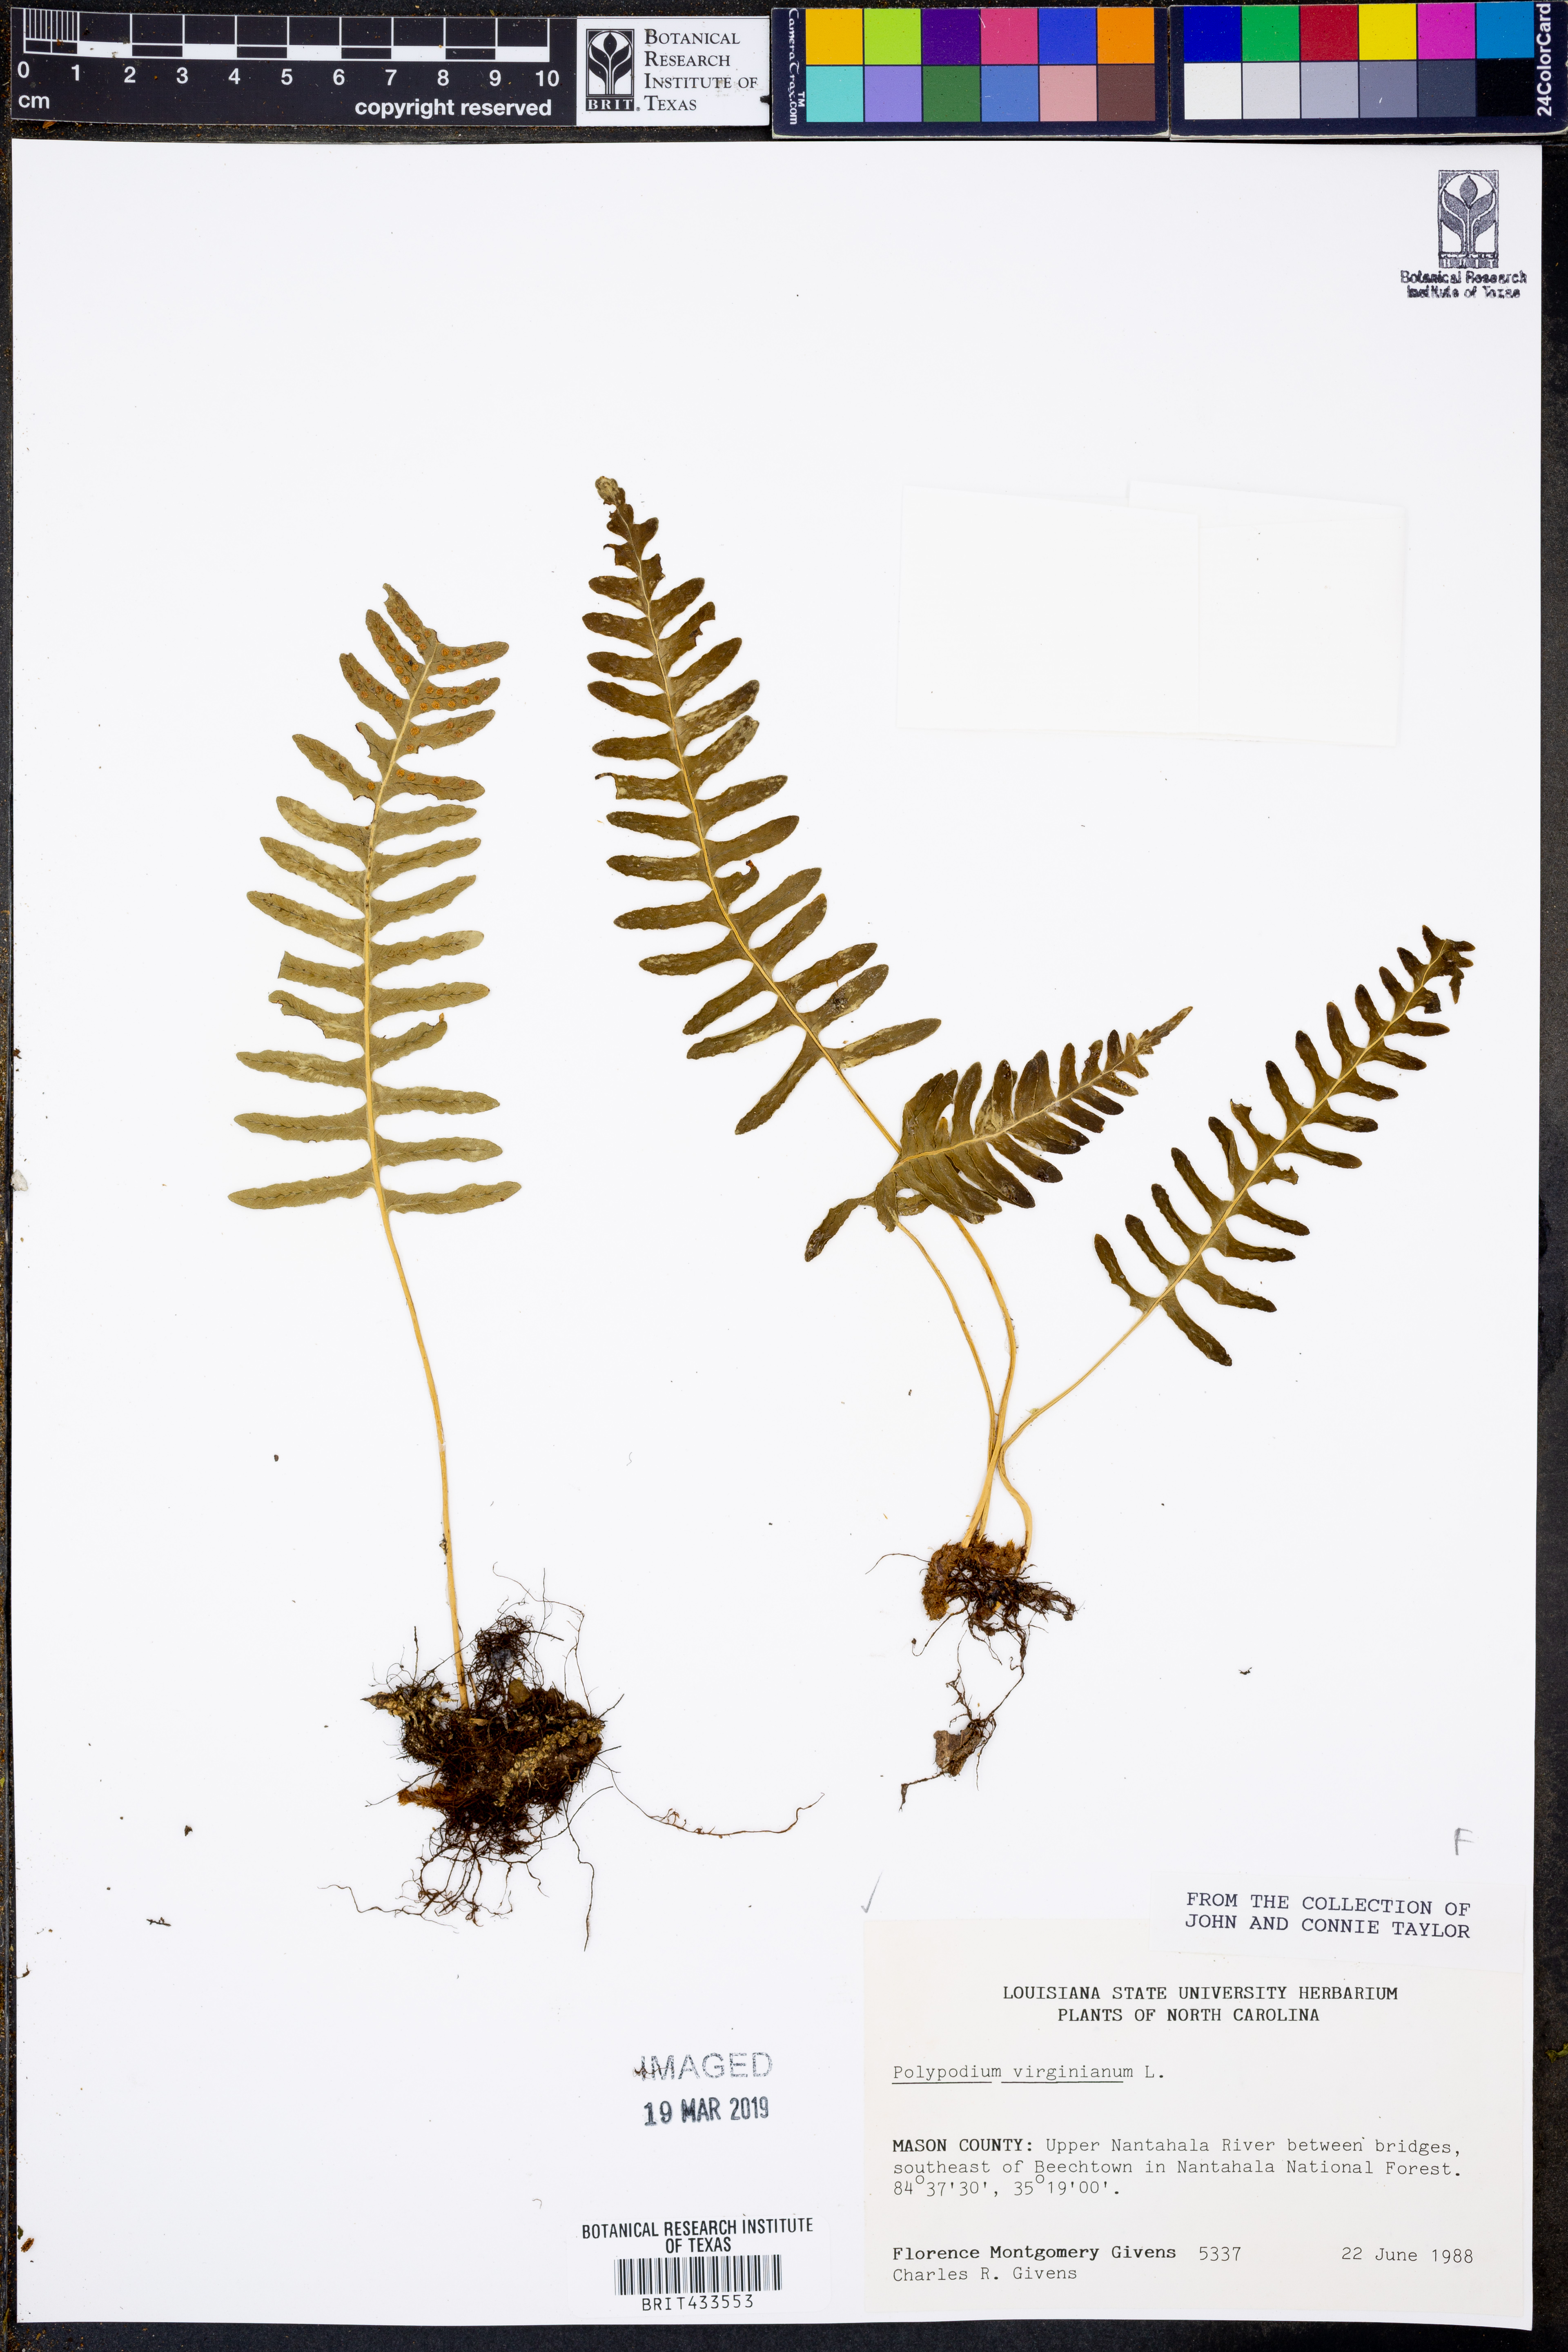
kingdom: Plantae
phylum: Tracheophyta
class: Polypodiopsida
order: Polypodiales
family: Polypodiaceae
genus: Polypodium
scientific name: Polypodium virginianum
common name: American wall fern
